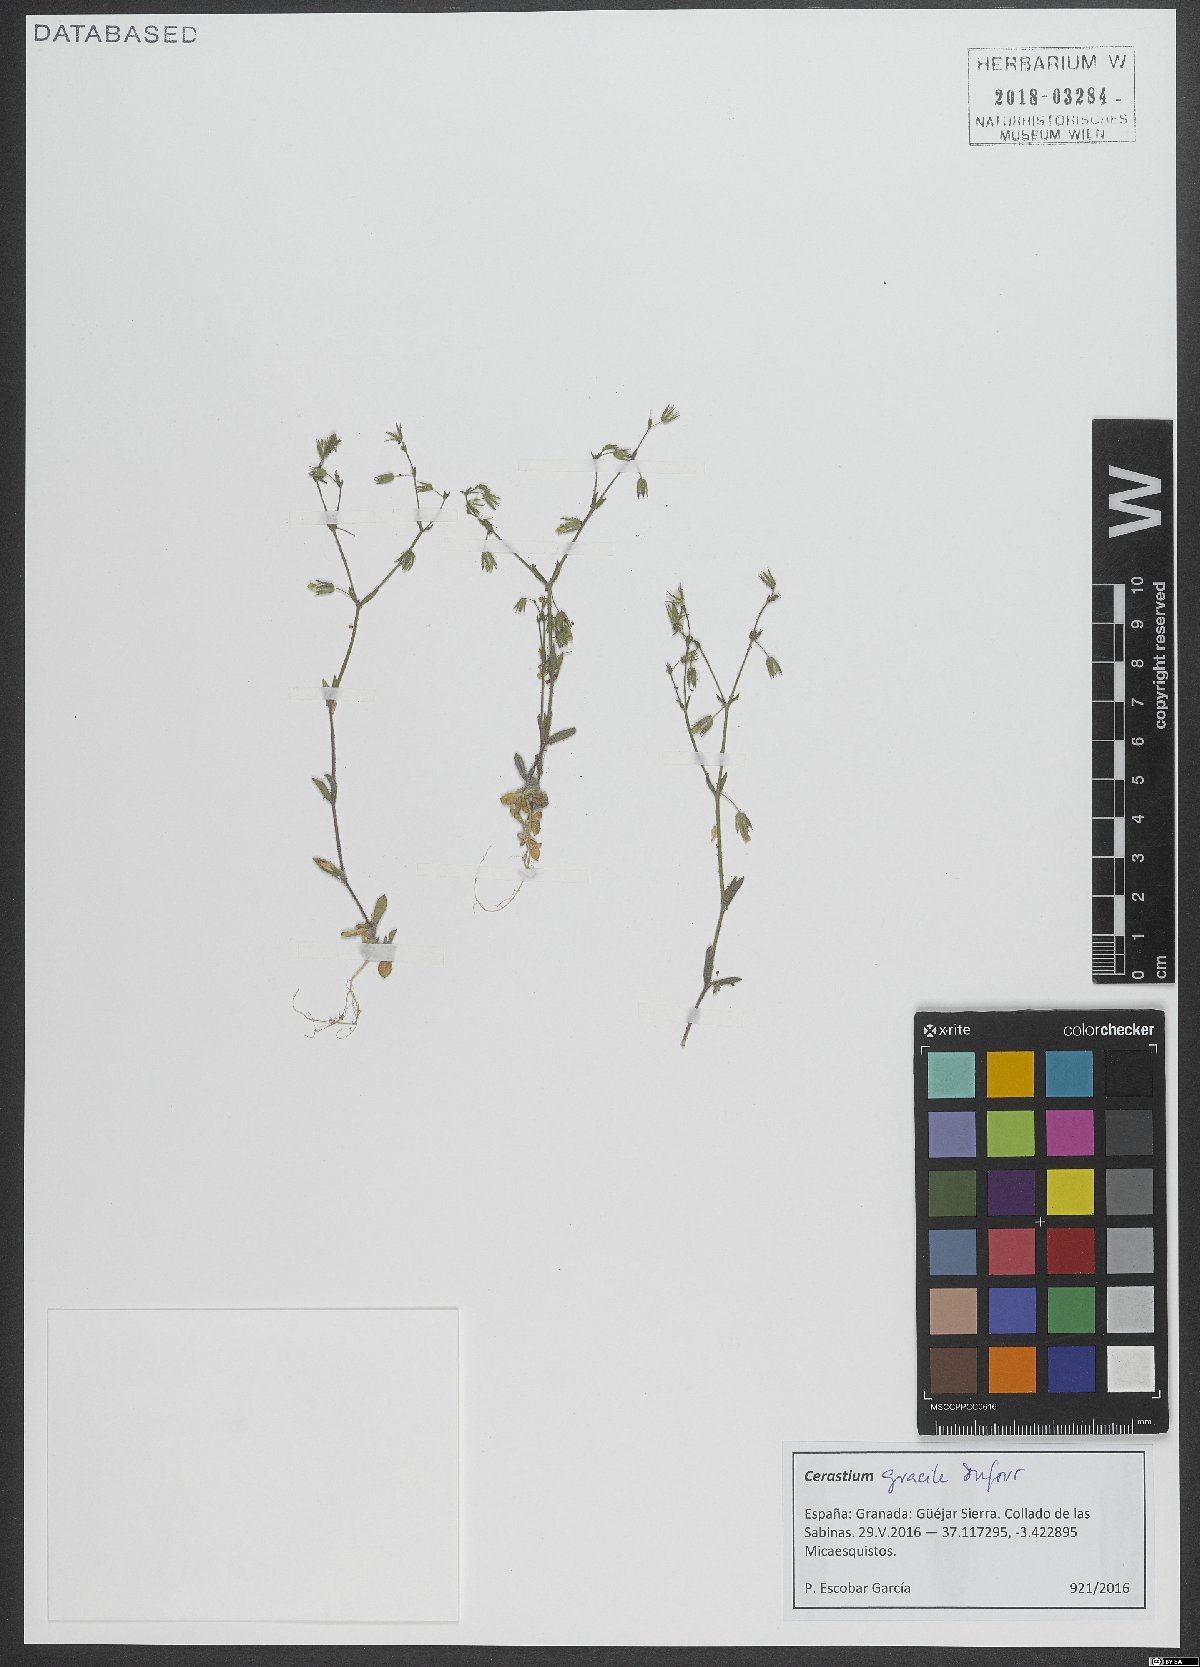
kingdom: Plantae
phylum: Tracheophyta
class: Magnoliopsida
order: Caryophyllales
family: Caryophyllaceae
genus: Cerastium
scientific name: Cerastium gracile
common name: Slender chickweed
